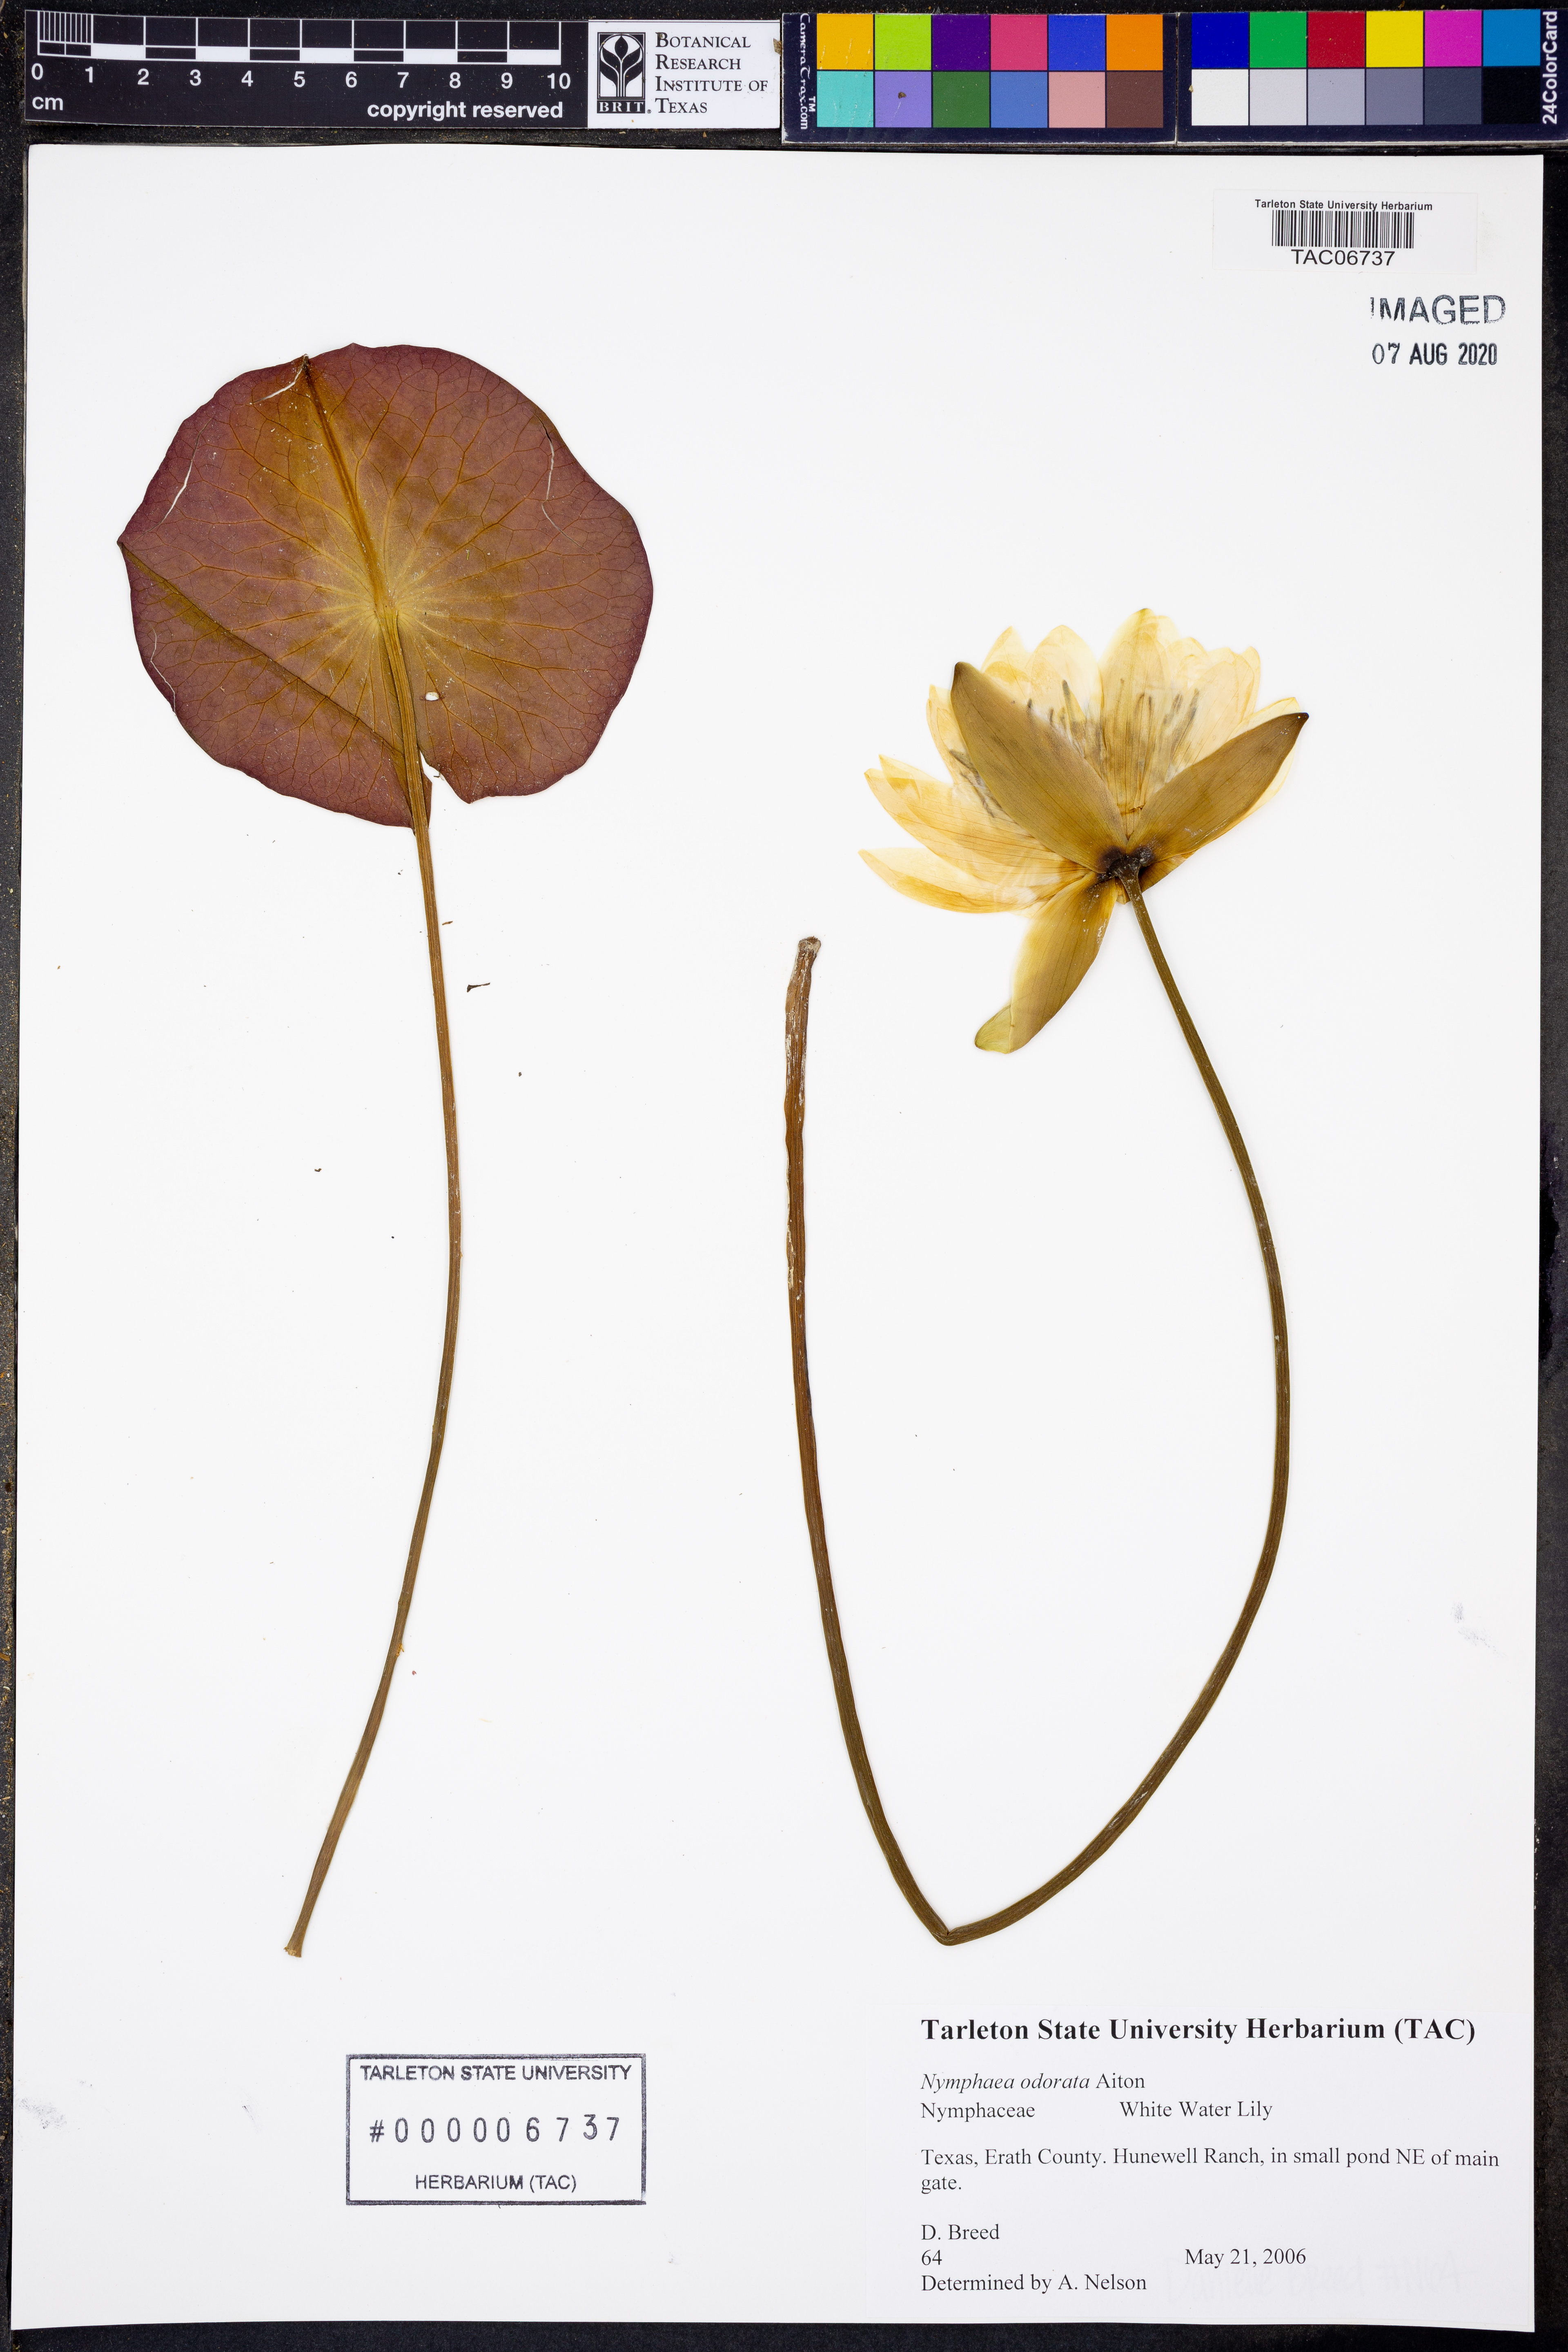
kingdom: Plantae
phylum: Tracheophyta
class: Magnoliopsida
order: Nymphaeales
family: Nymphaeaceae
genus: Nymphaea
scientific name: Nymphaea odorata
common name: Fragrant water-lily
